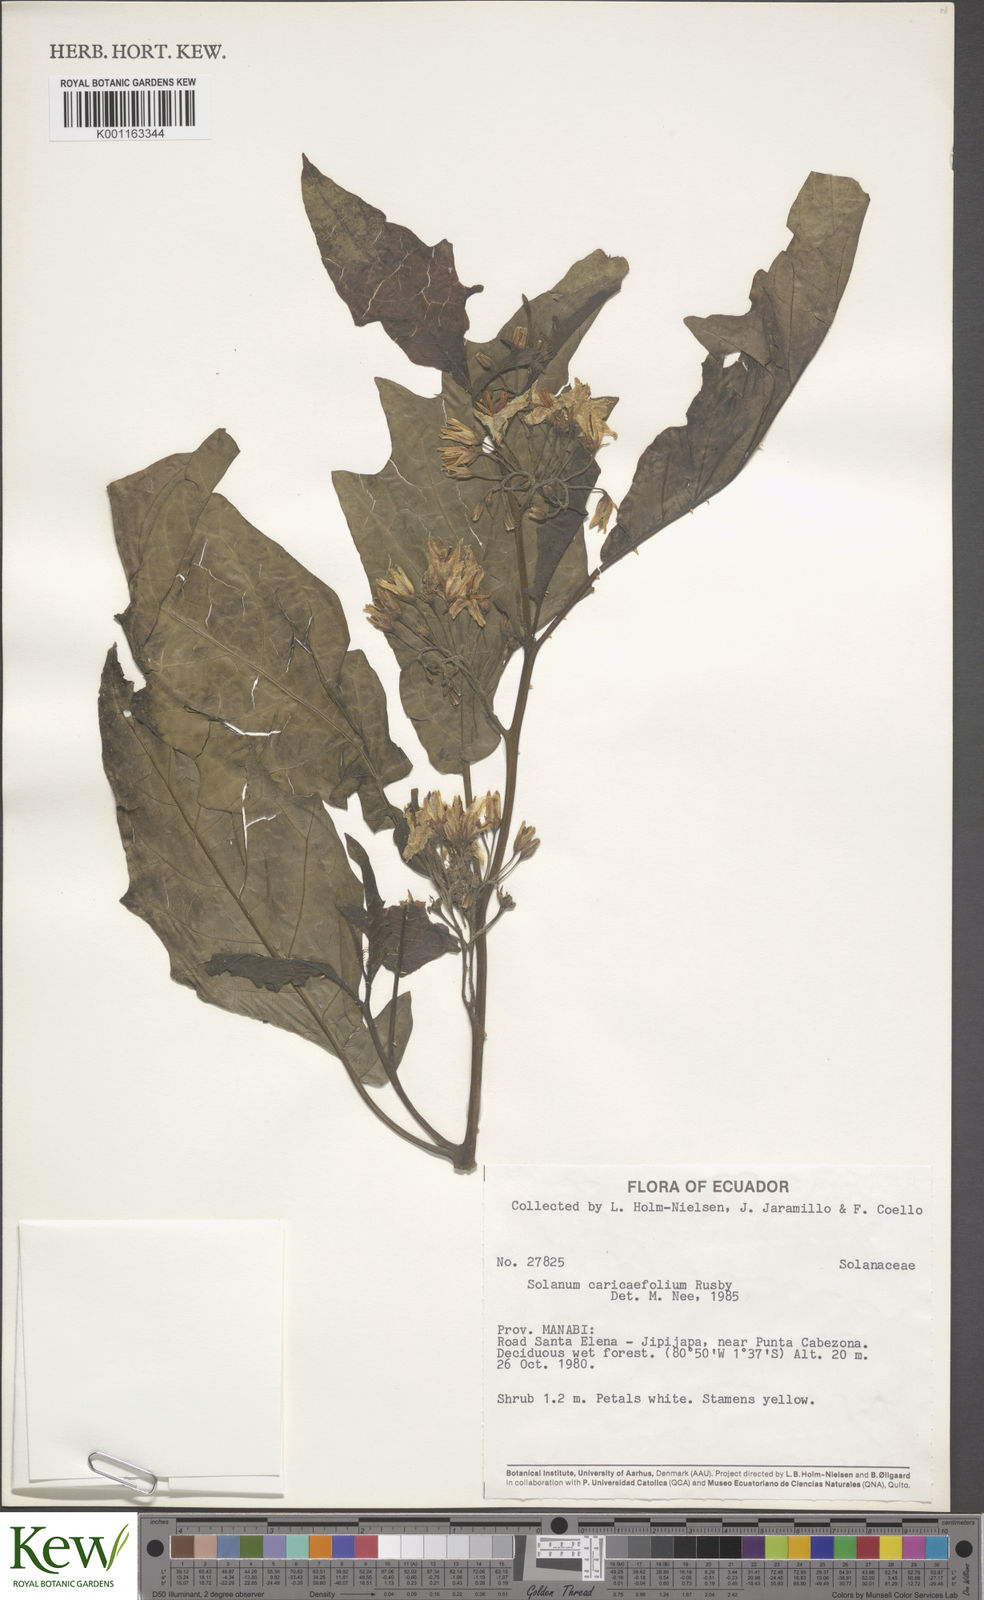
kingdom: Plantae
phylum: Tracheophyta
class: Magnoliopsida
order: Solanales
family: Solanaceae
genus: Solanum
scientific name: Solanum caricaefolium
